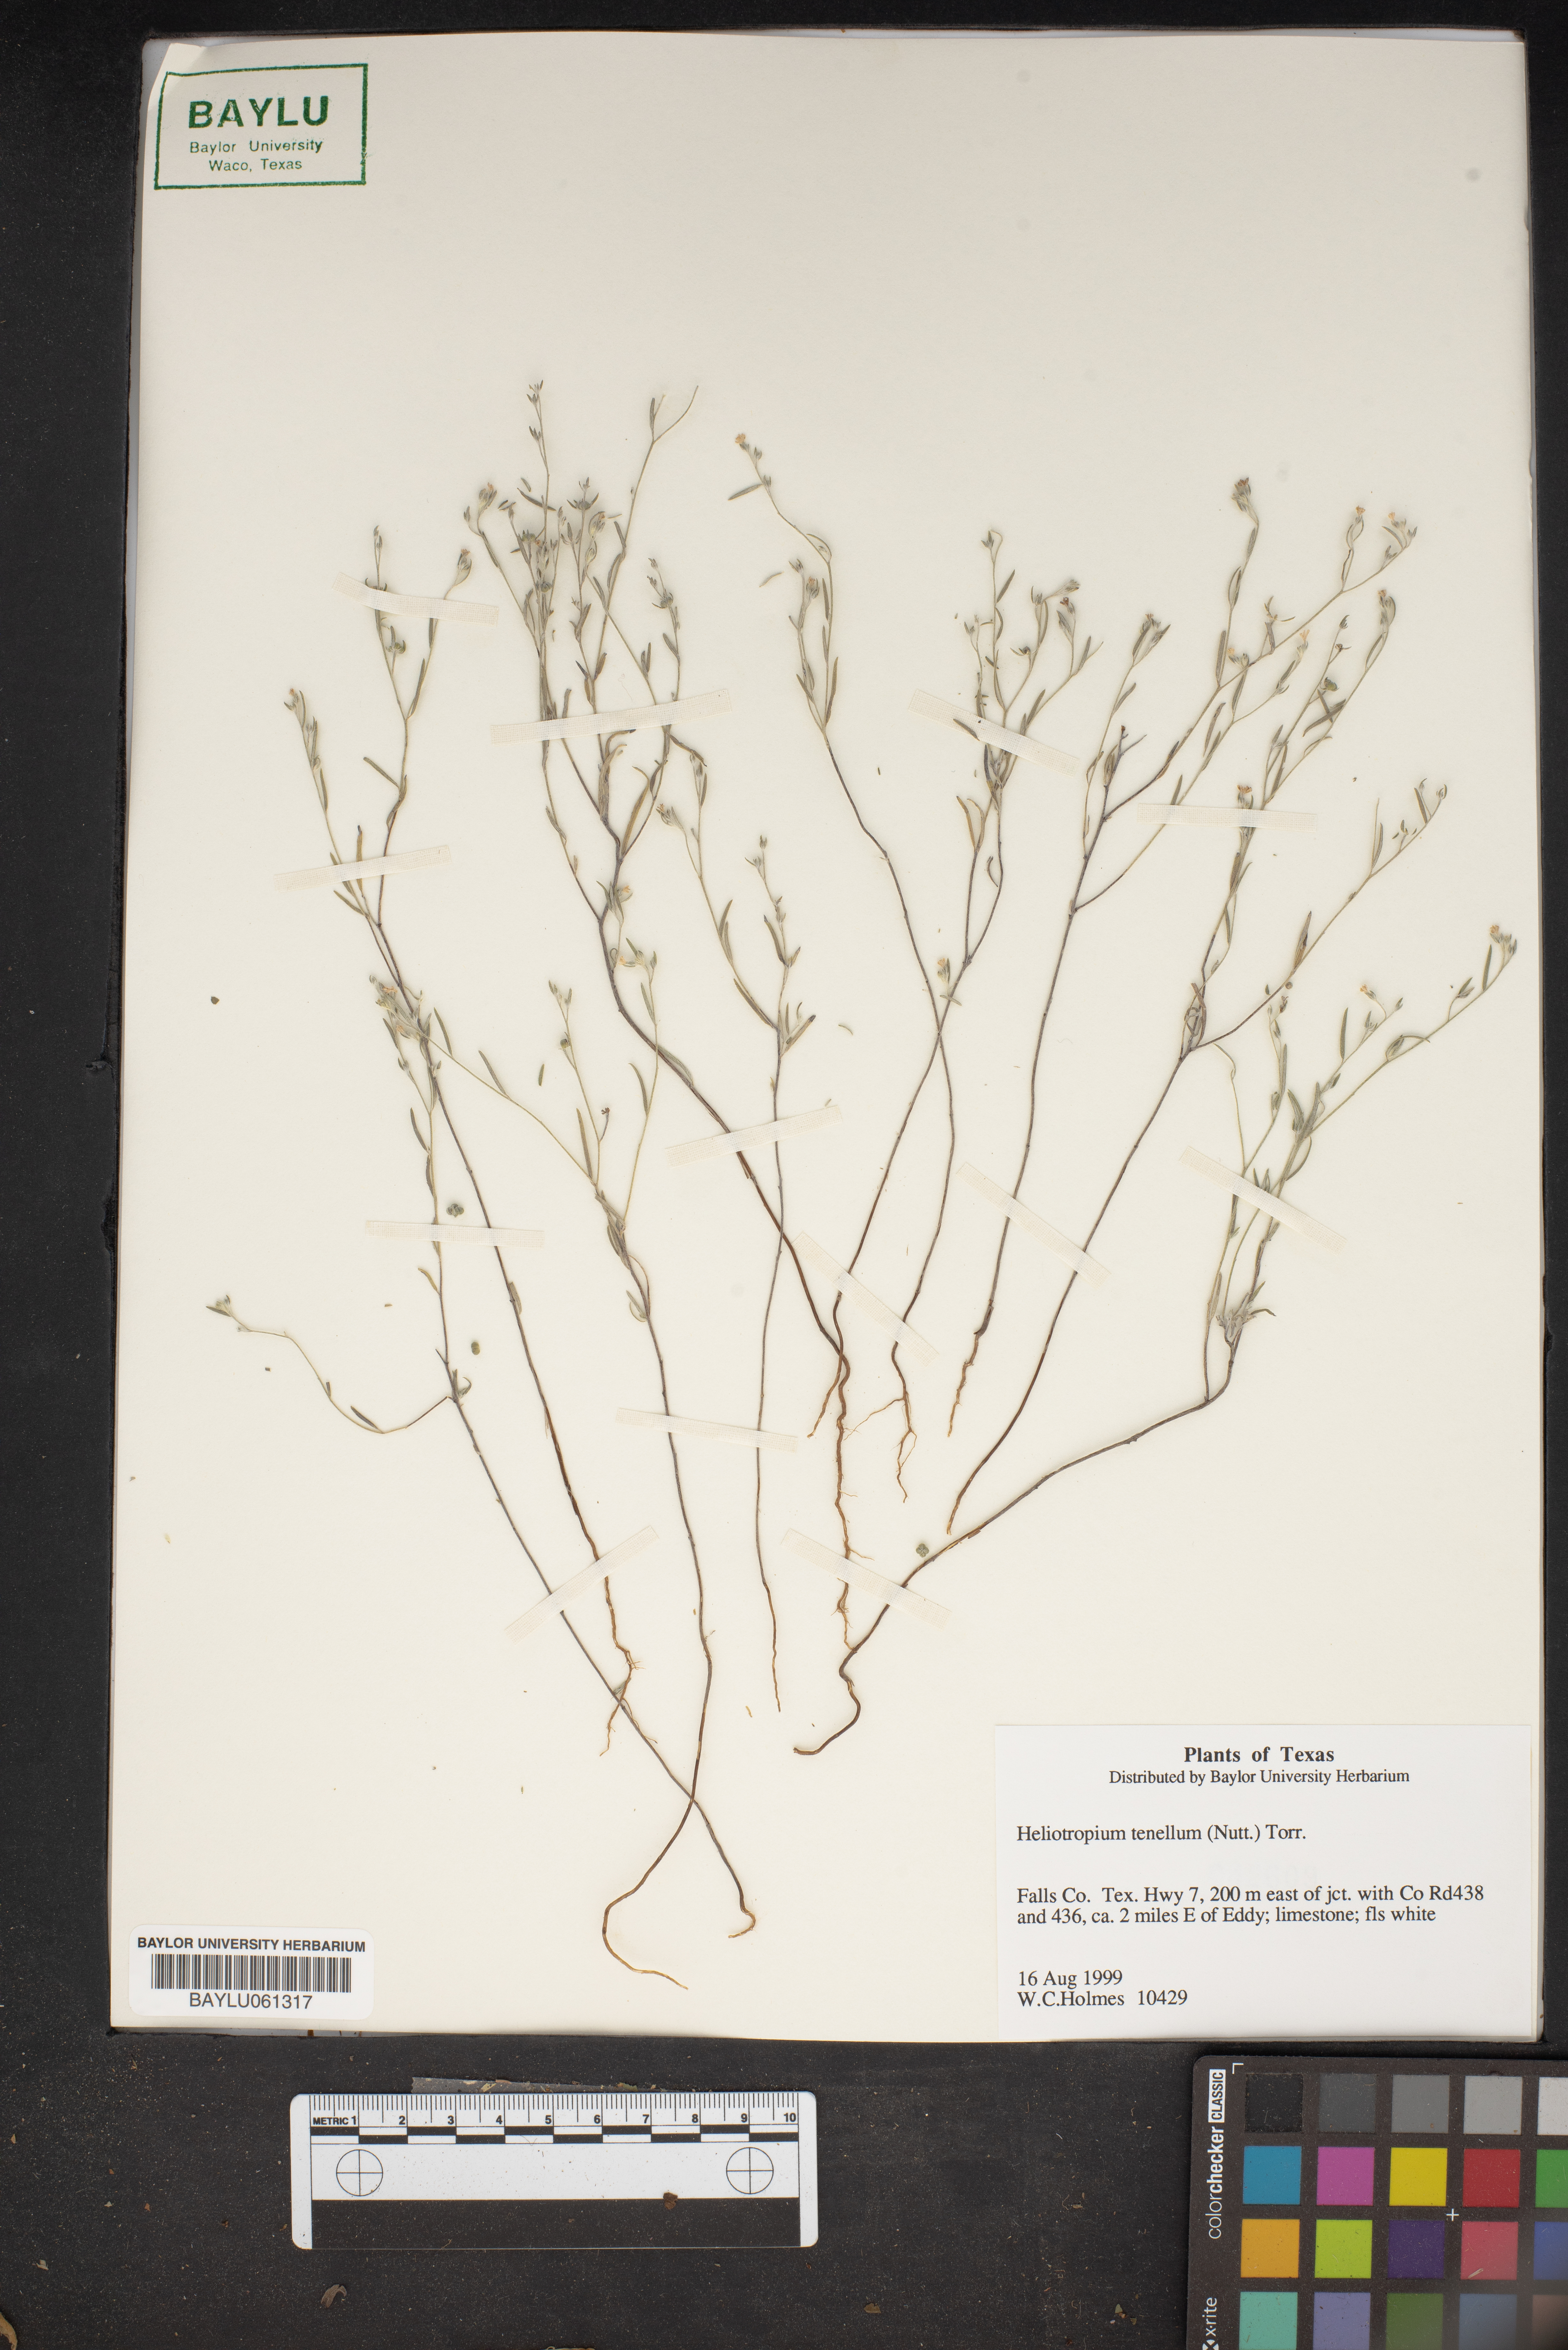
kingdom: Plantae
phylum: Tracheophyta
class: Magnoliopsida
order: Boraginales
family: Heliotropiaceae
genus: Euploca
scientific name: Euploca tenella
